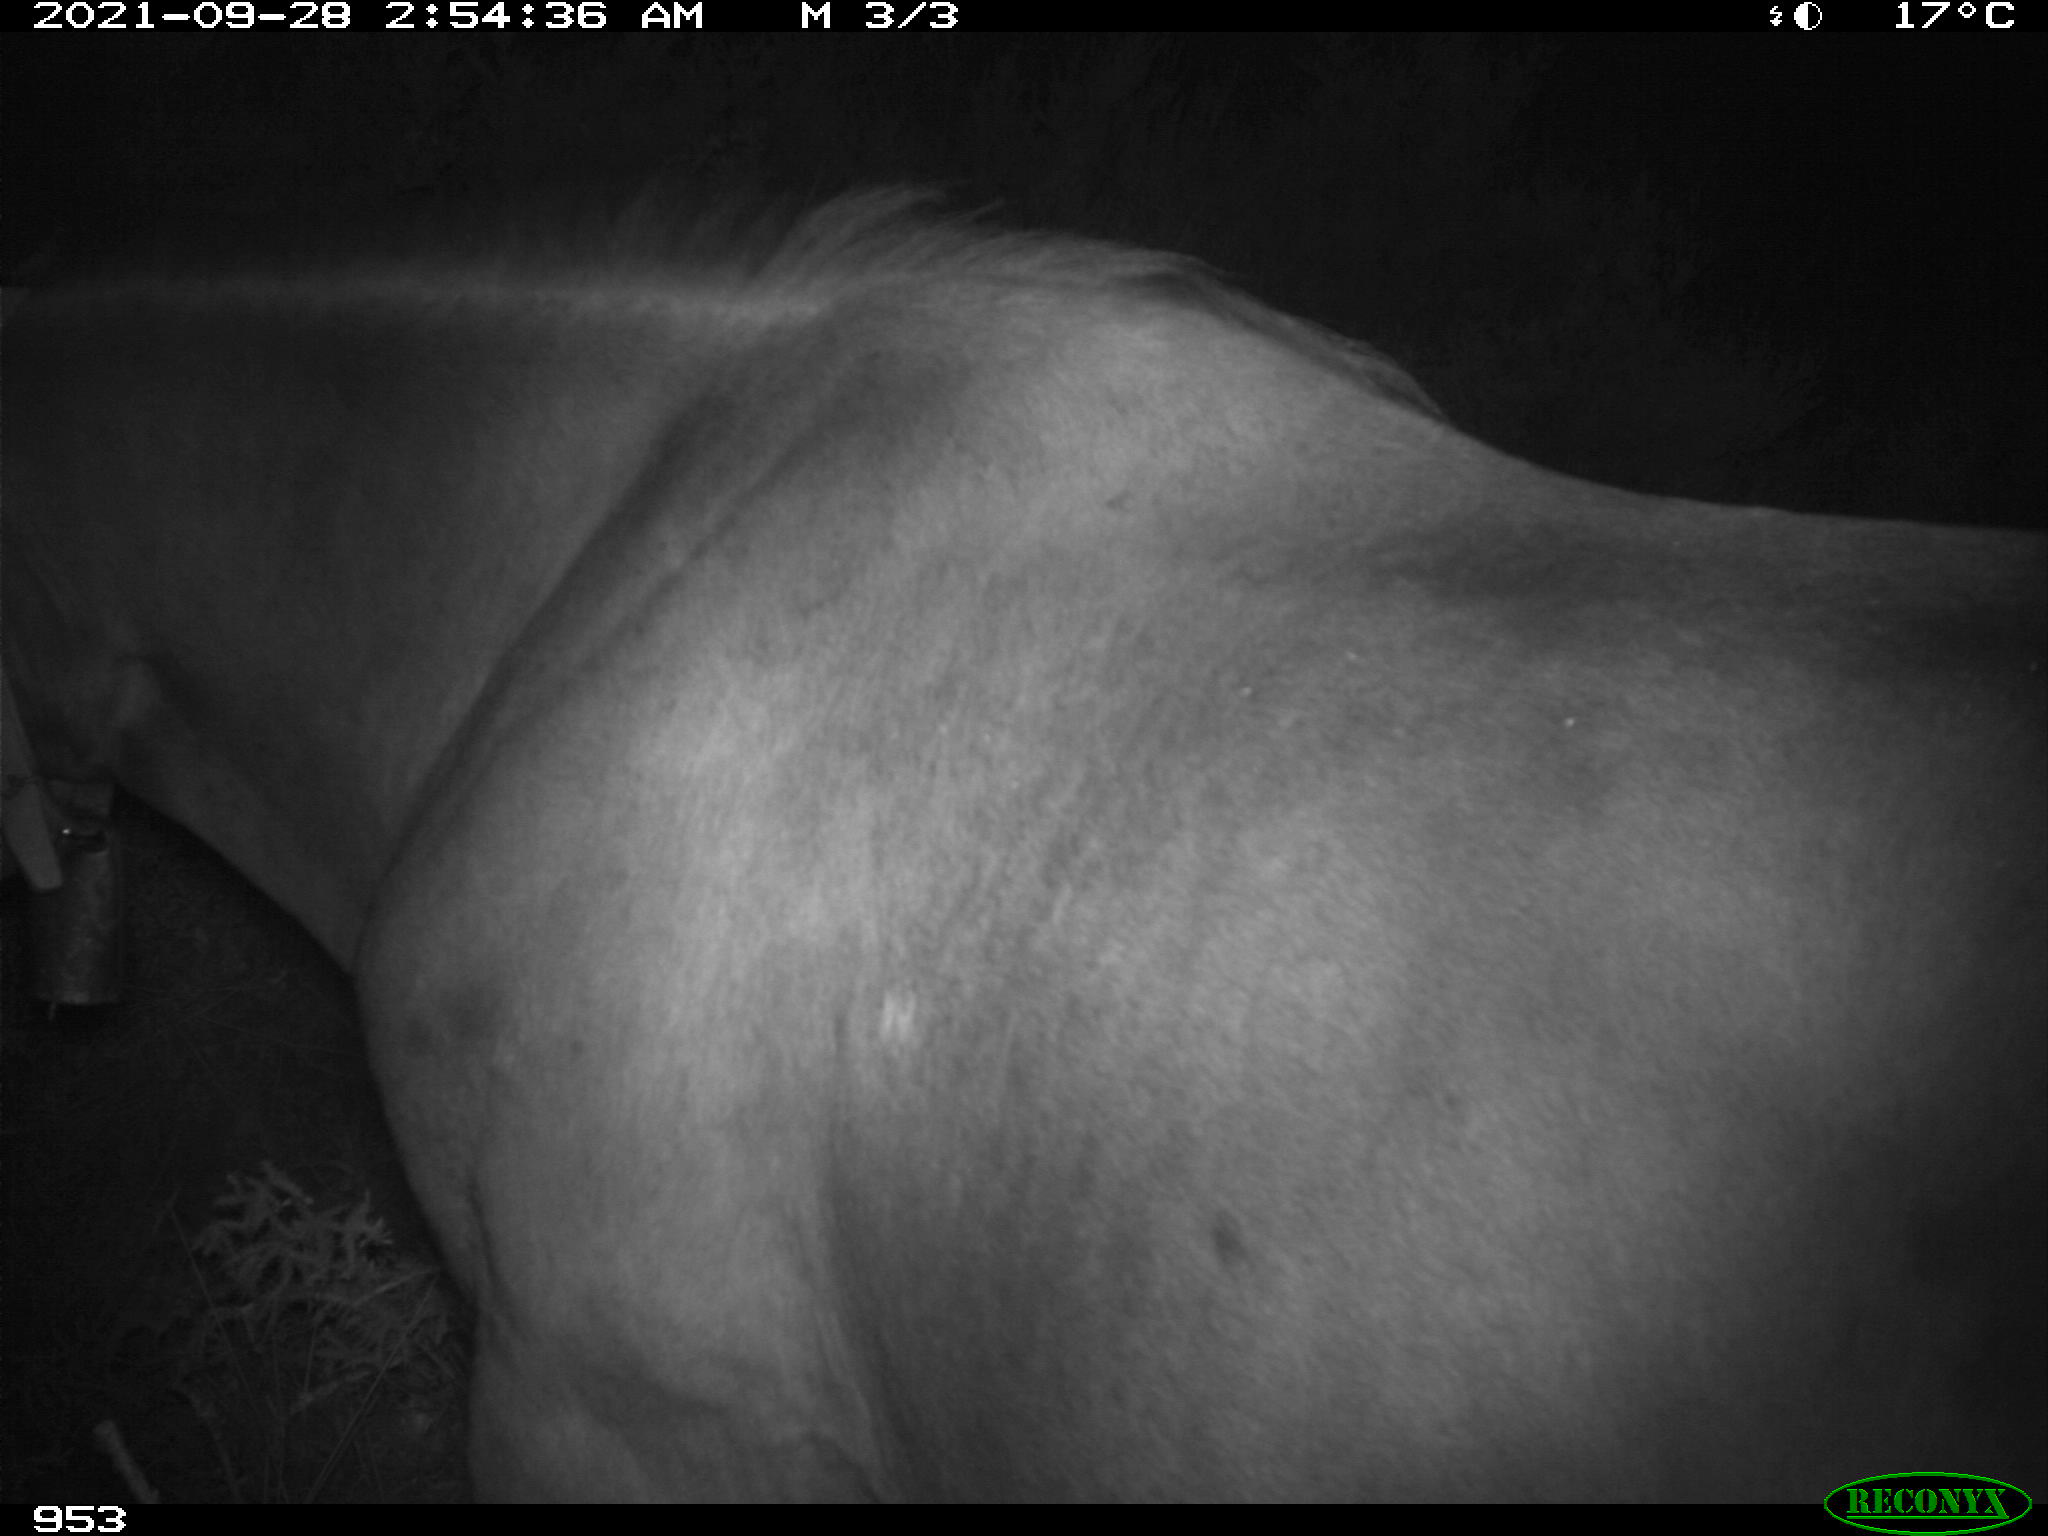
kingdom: Animalia
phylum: Chordata
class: Mammalia
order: Perissodactyla
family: Equidae
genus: Equus
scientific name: Equus caballus
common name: Horse
